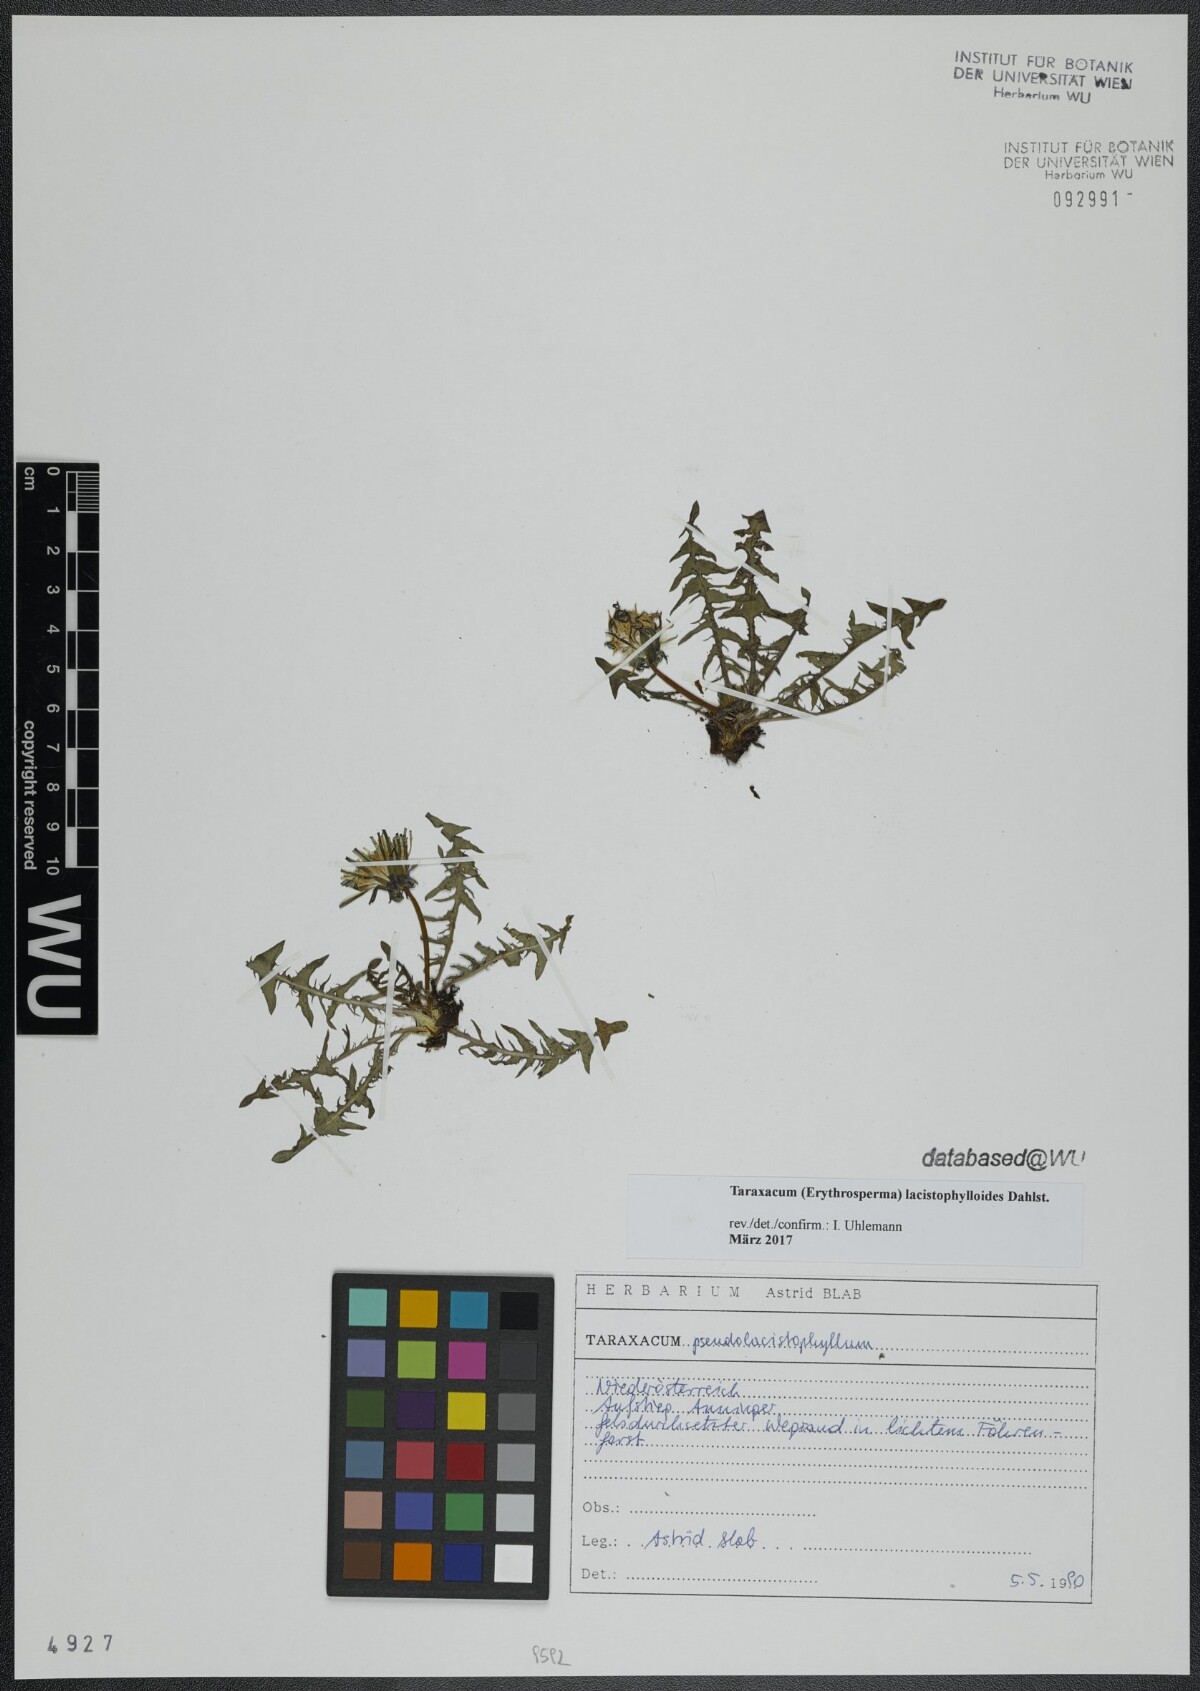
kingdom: Plantae
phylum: Tracheophyta
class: Magnoliopsida
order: Asterales
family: Asteraceae
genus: Taraxacum
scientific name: Taraxacum lacistophylloides
